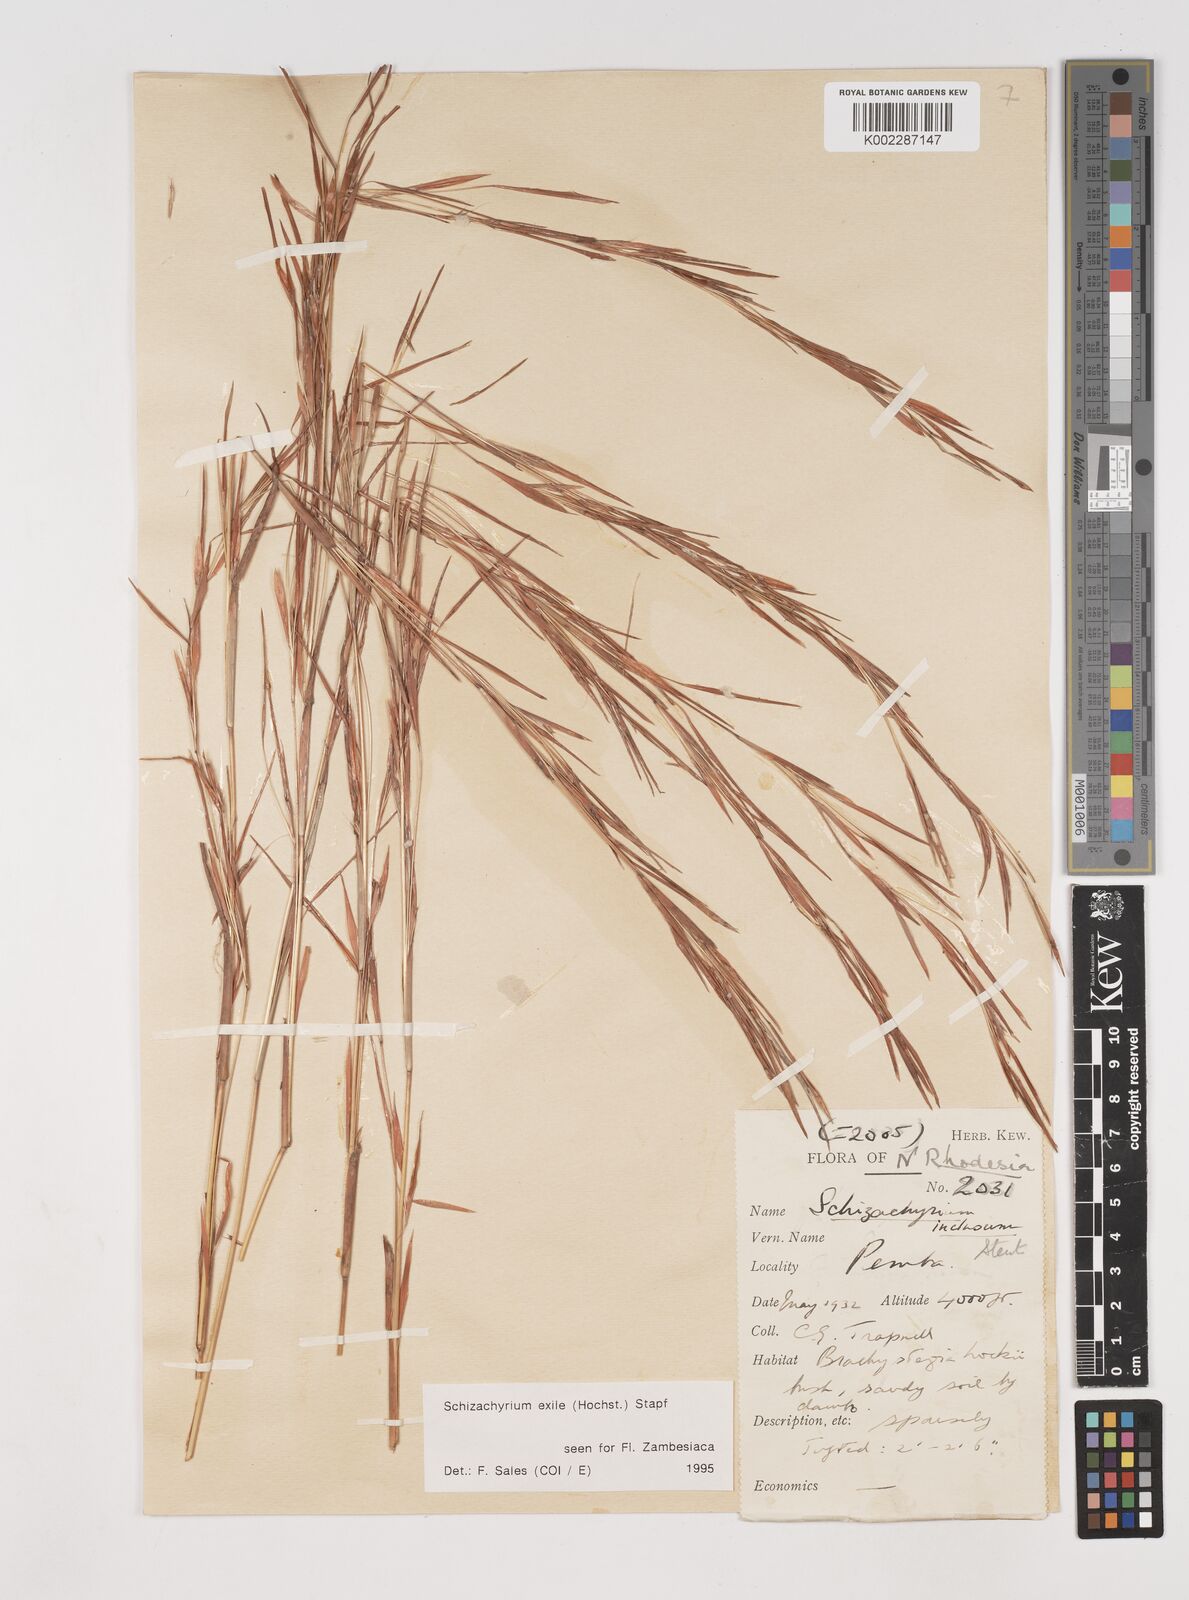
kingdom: Plantae
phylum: Tracheophyta
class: Liliopsida
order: Poales
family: Poaceae
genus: Schizachyrium
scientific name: Schizachyrium exile
